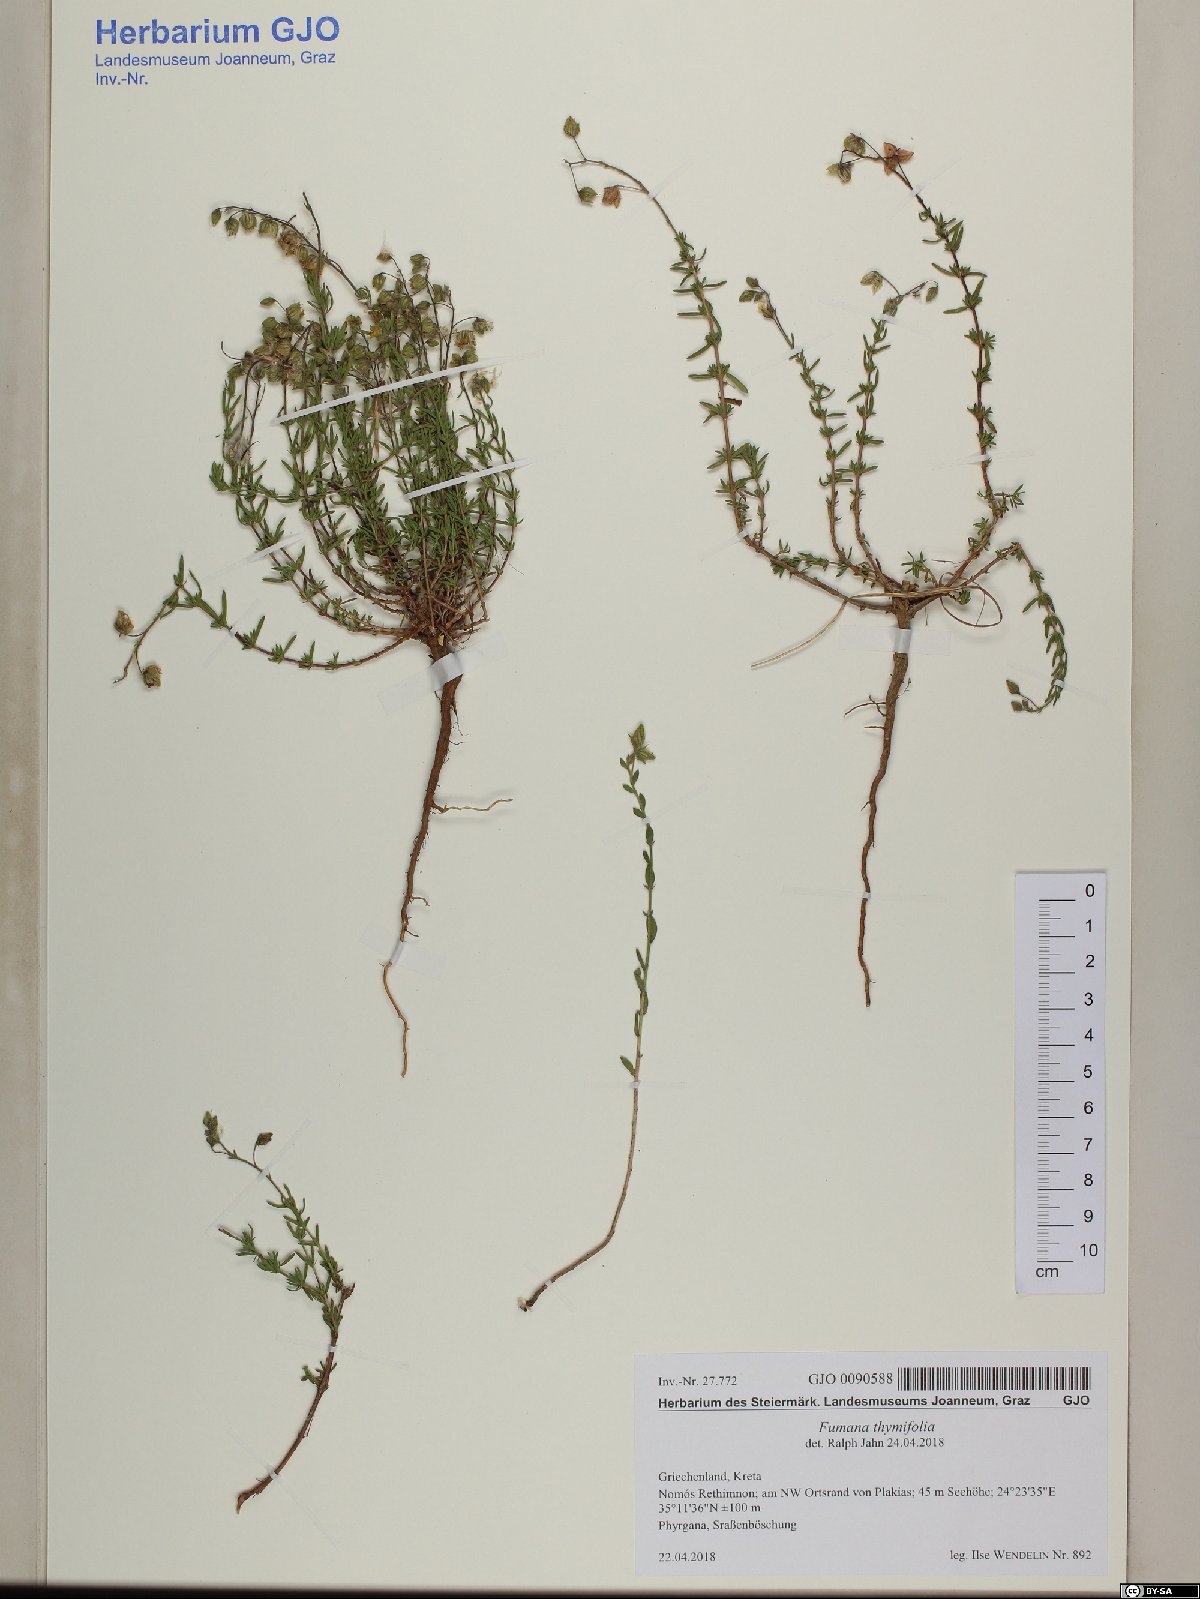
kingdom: Plantae
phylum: Tracheophyta
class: Magnoliopsida
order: Malvales
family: Cistaceae
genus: Fumana
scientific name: Fumana thymifolia
